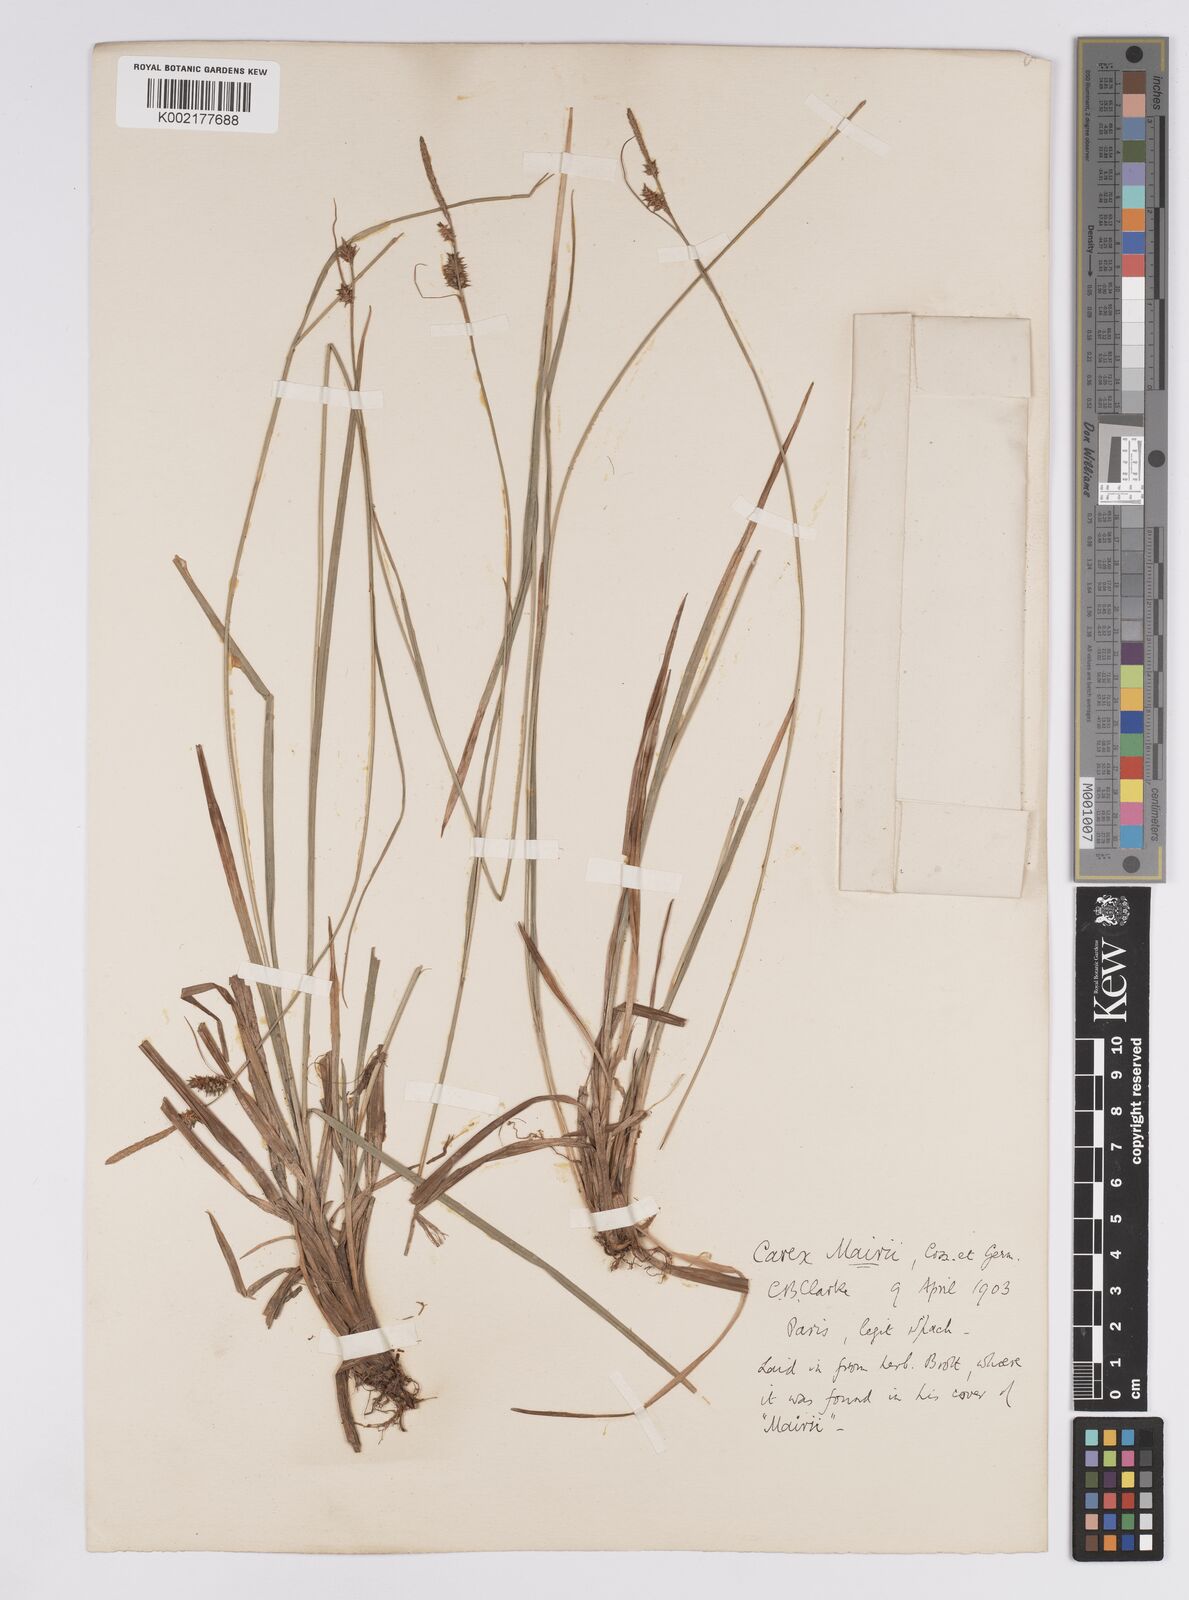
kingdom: Plantae
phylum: Tracheophyta
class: Liliopsida
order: Poales
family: Cyperaceae
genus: Carex
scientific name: Carex mairei
